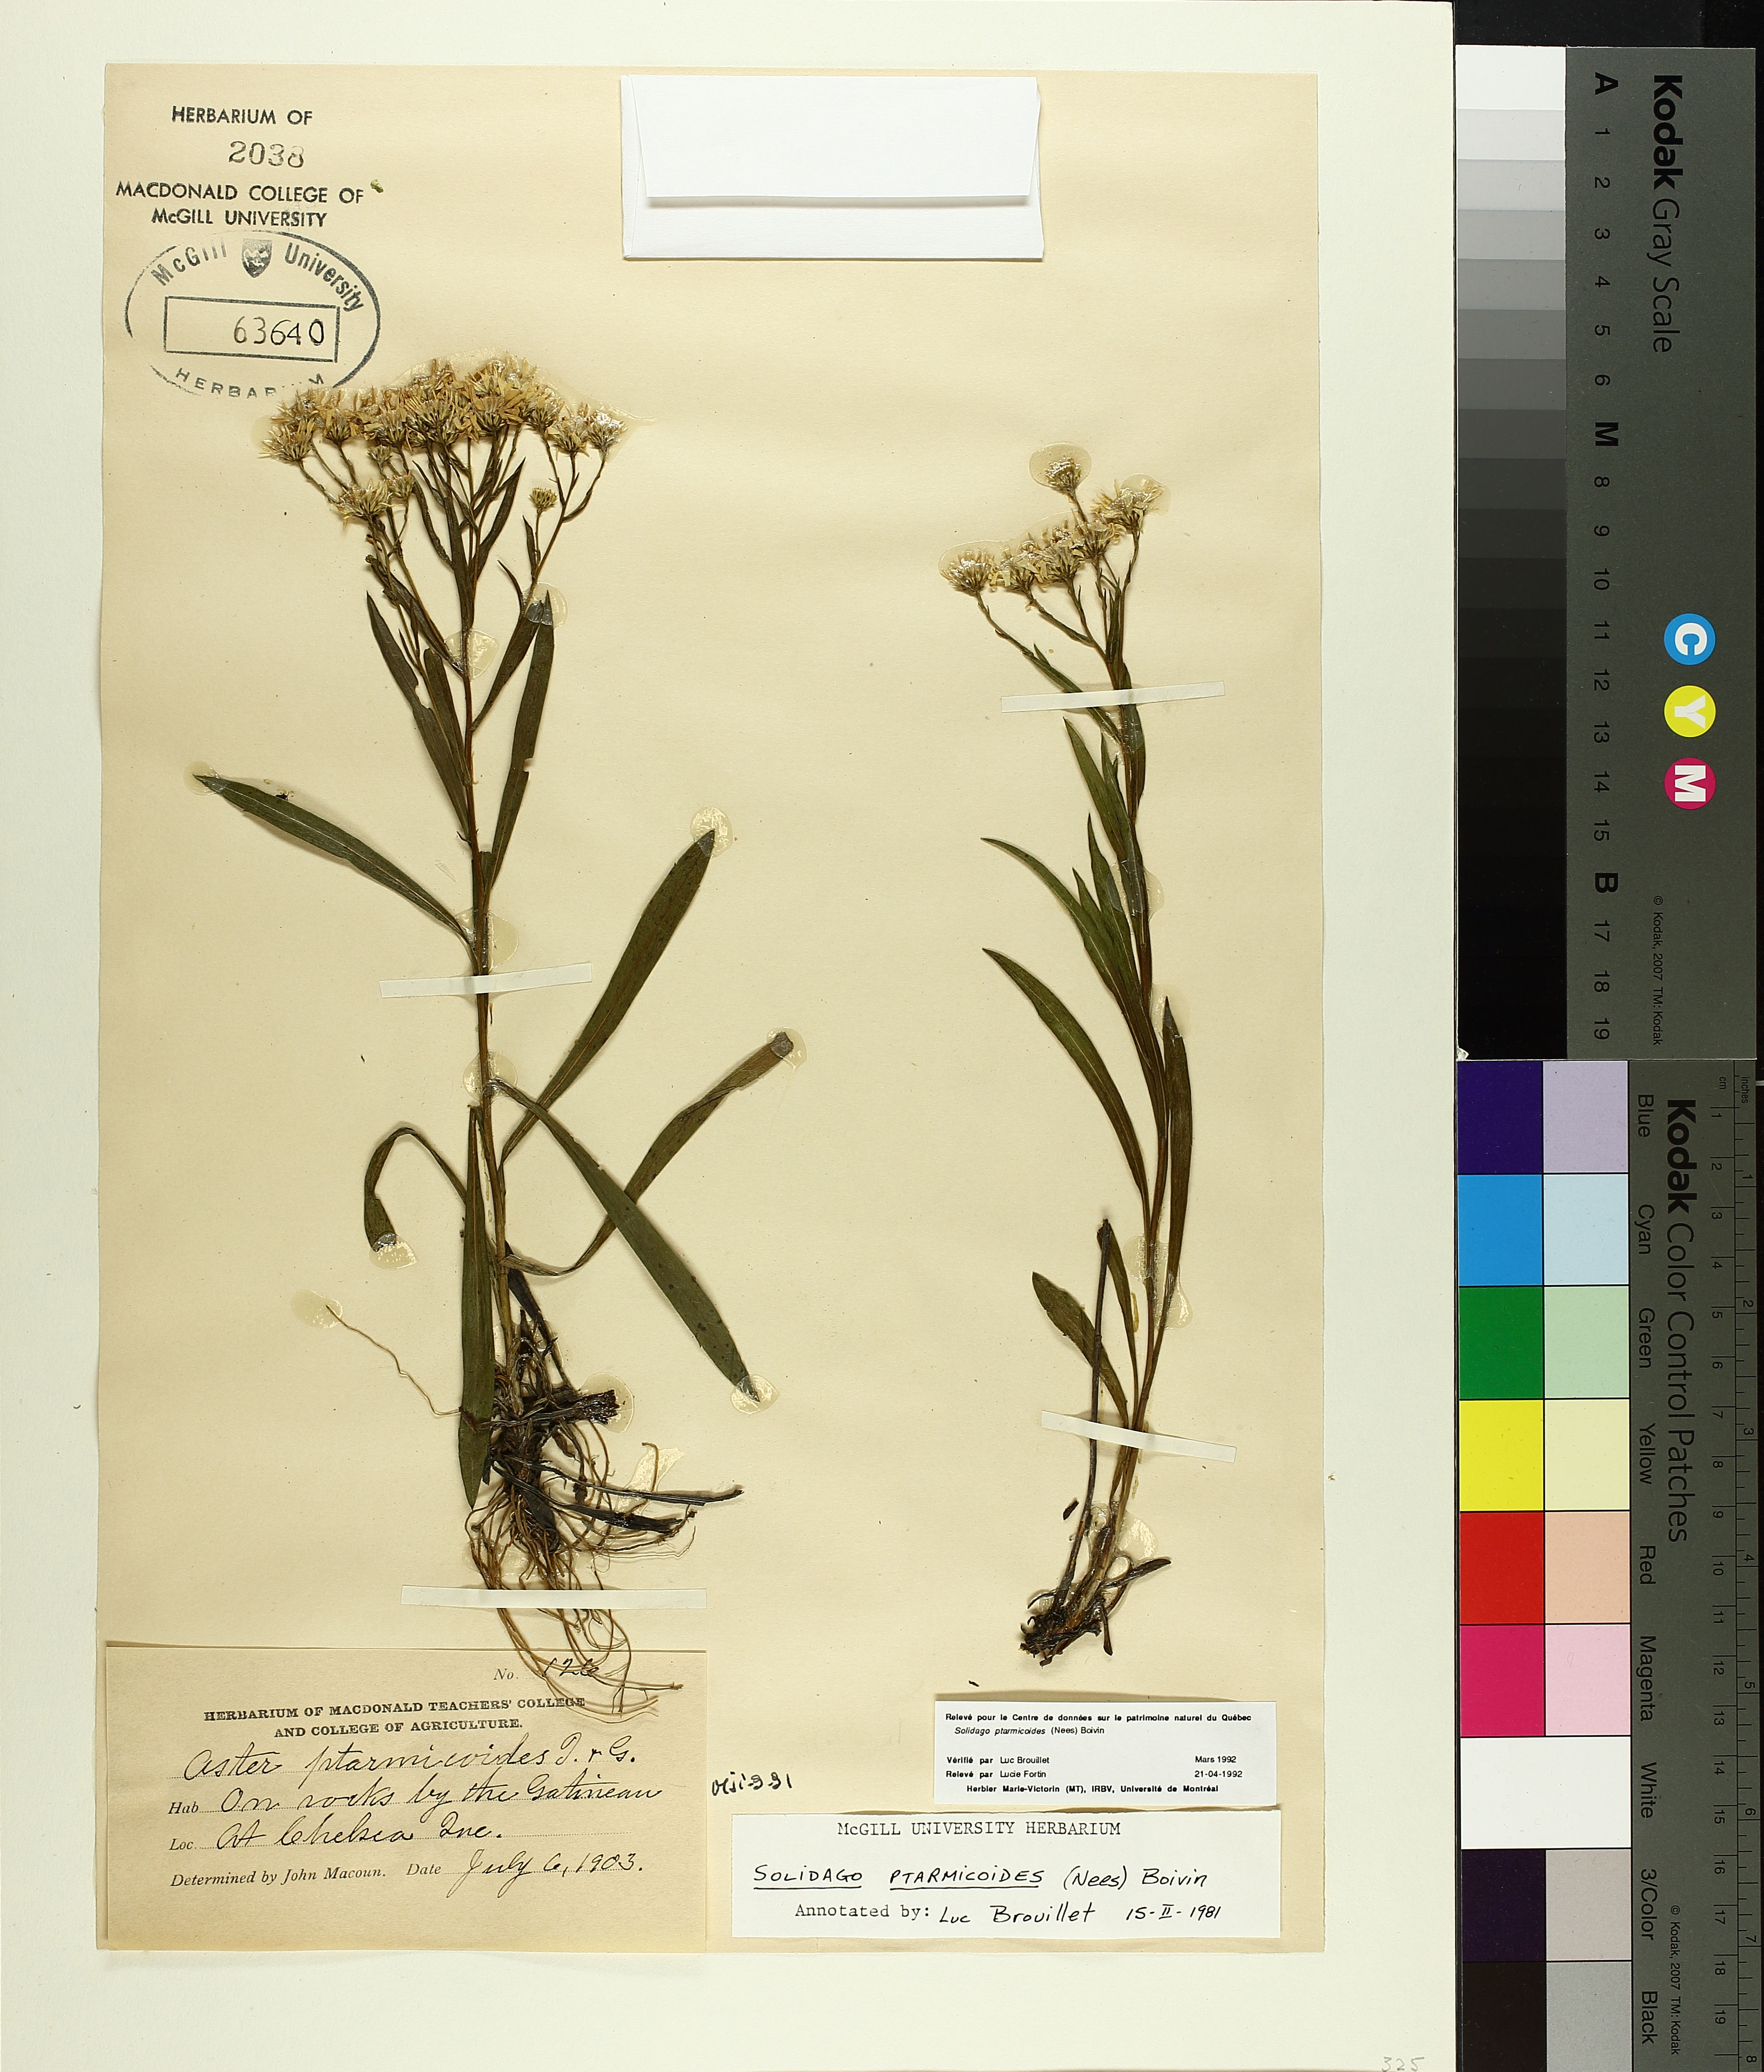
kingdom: Plantae
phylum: Tracheophyta
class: Liliopsida
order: Poales
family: Cyperaceae
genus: Carex
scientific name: Carex aquatilis
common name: Water sedge
